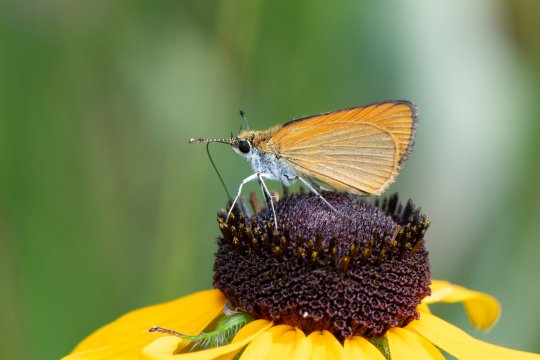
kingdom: Animalia
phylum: Arthropoda
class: Insecta
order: Lepidoptera
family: Hesperiidae
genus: Ancyloxypha
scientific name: Ancyloxypha numitor
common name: Least Skipper
